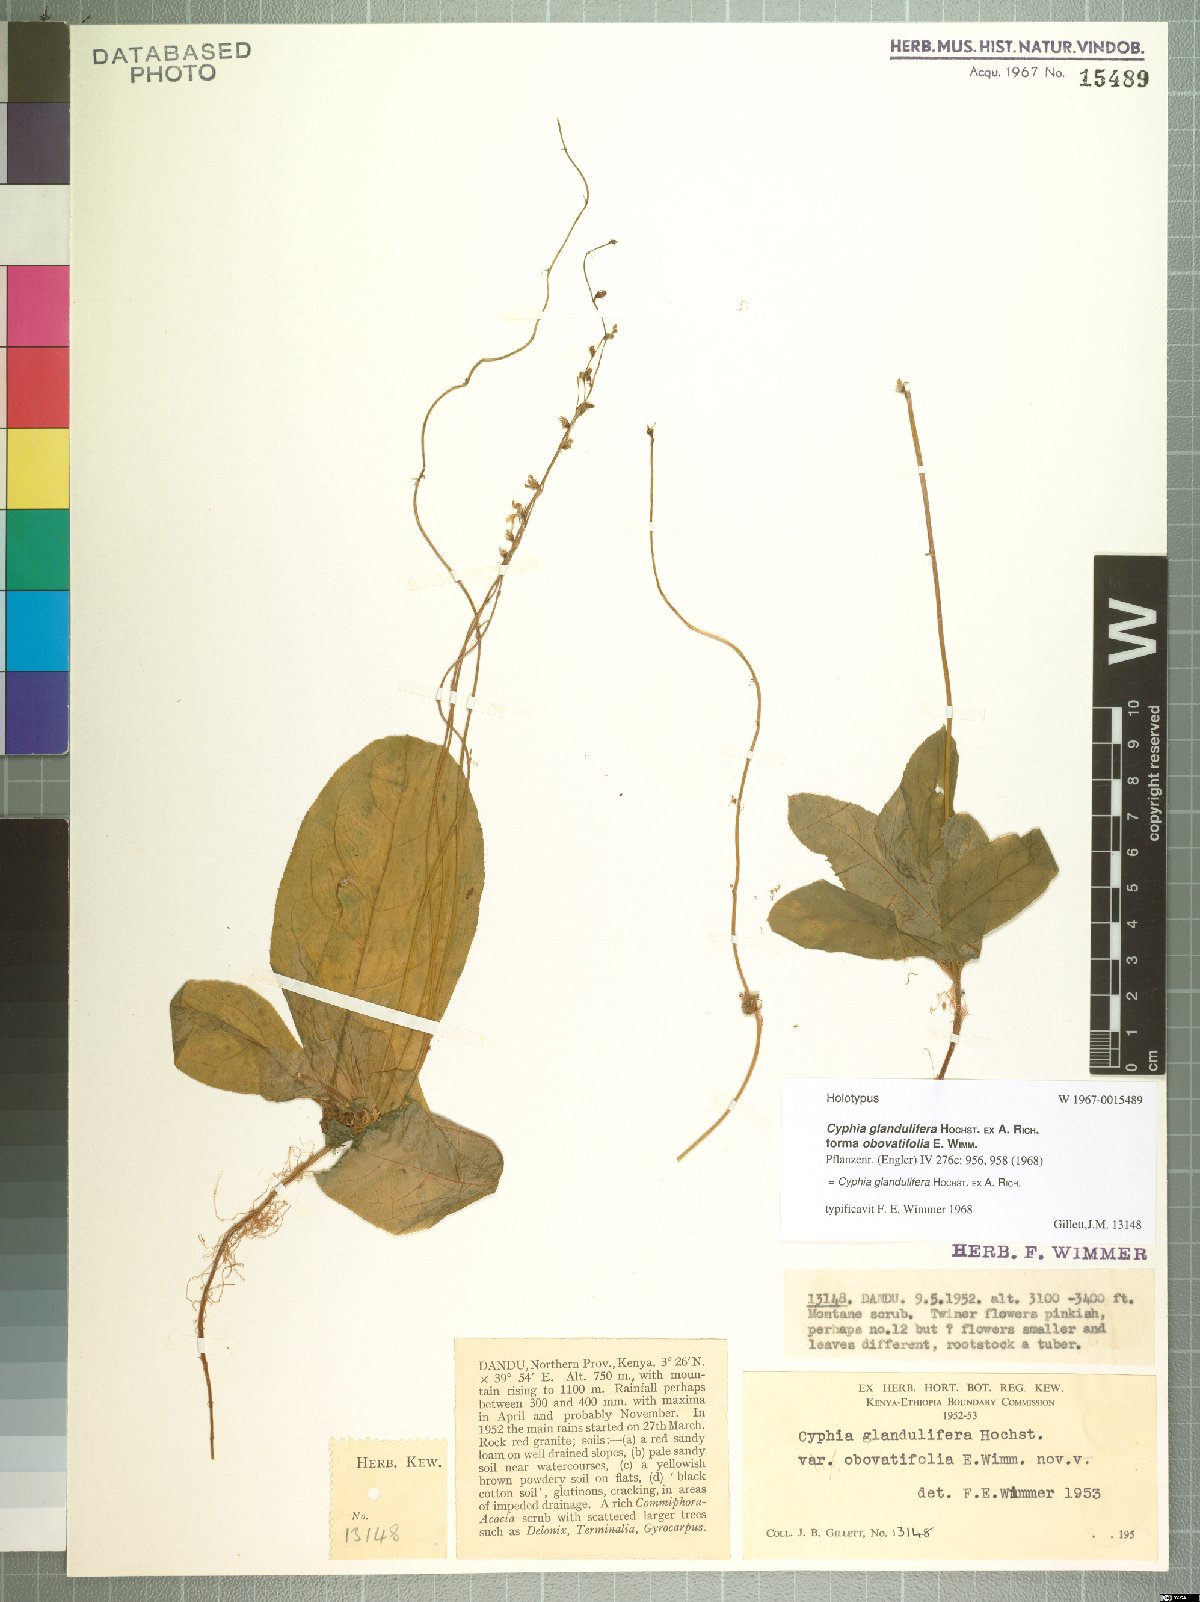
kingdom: Plantae
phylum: Tracheophyta
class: Magnoliopsida
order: Asterales
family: Campanulaceae
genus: Cyphia
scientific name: Cyphia glandulifera
